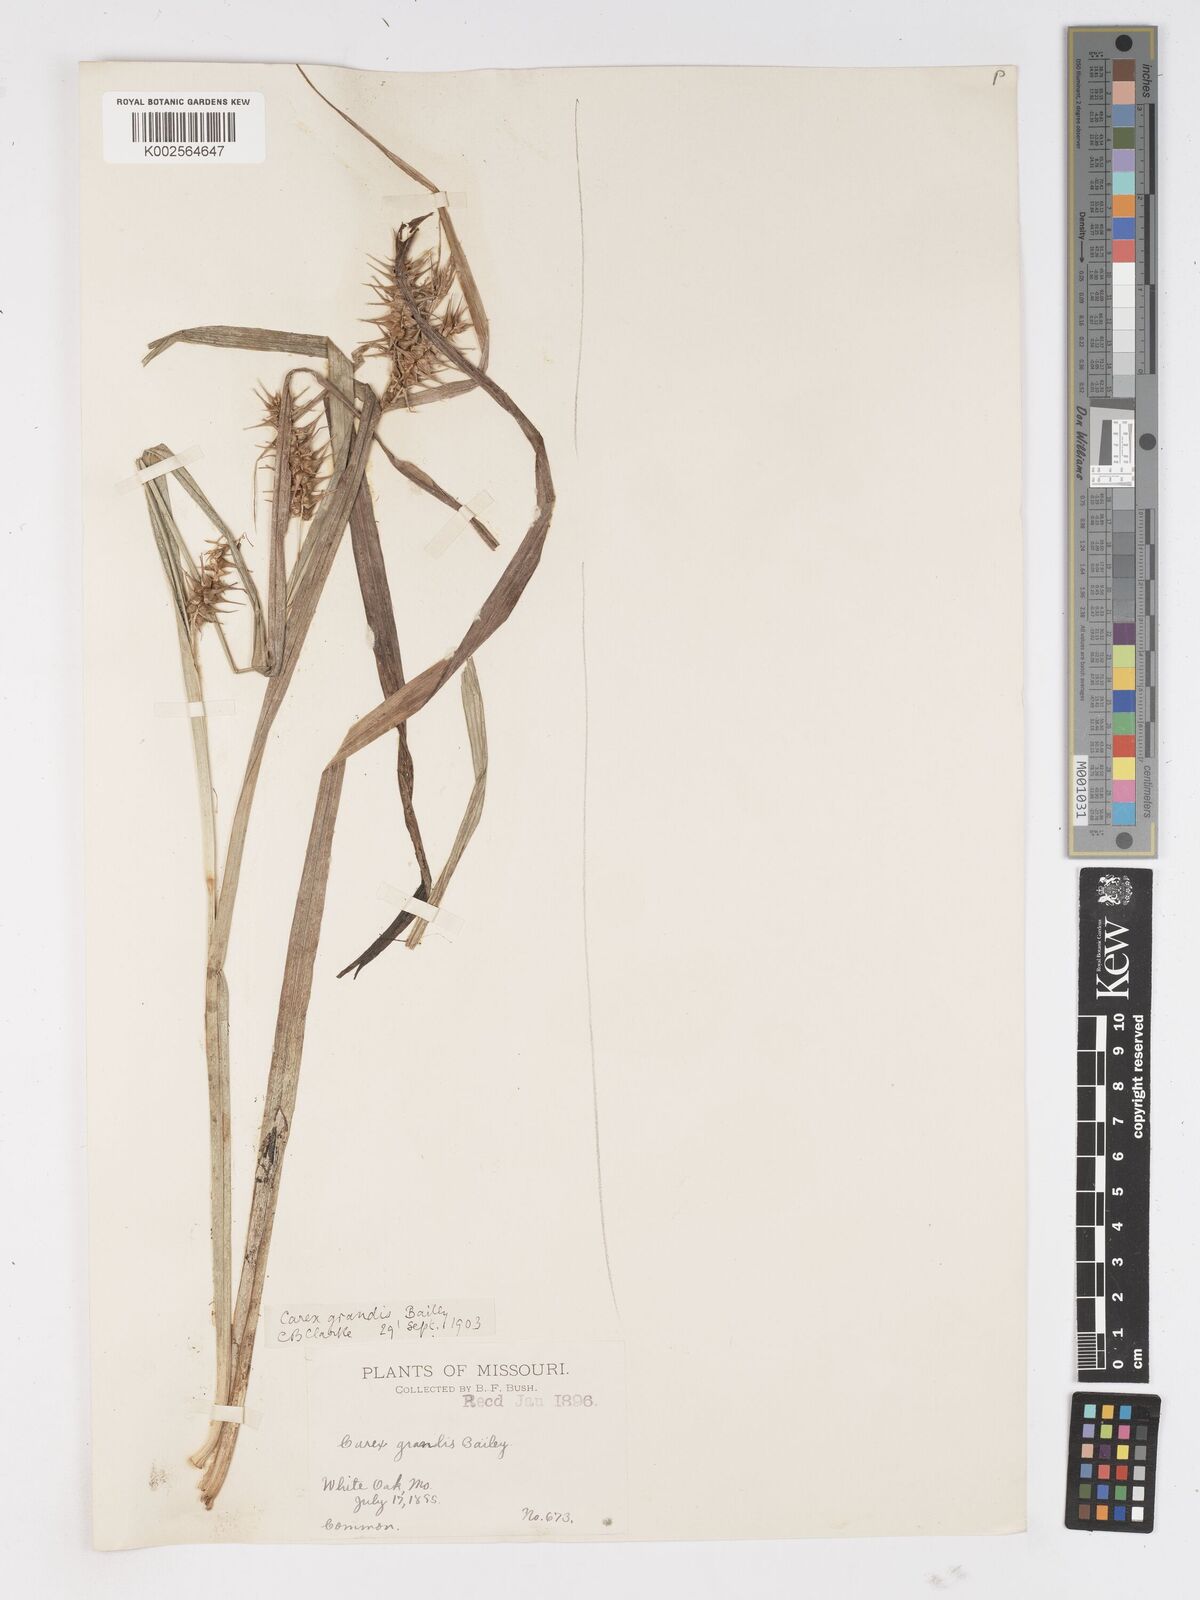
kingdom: Plantae
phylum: Tracheophyta
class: Liliopsida
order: Poales
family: Cyperaceae
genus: Carex
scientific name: Carex gigantea
